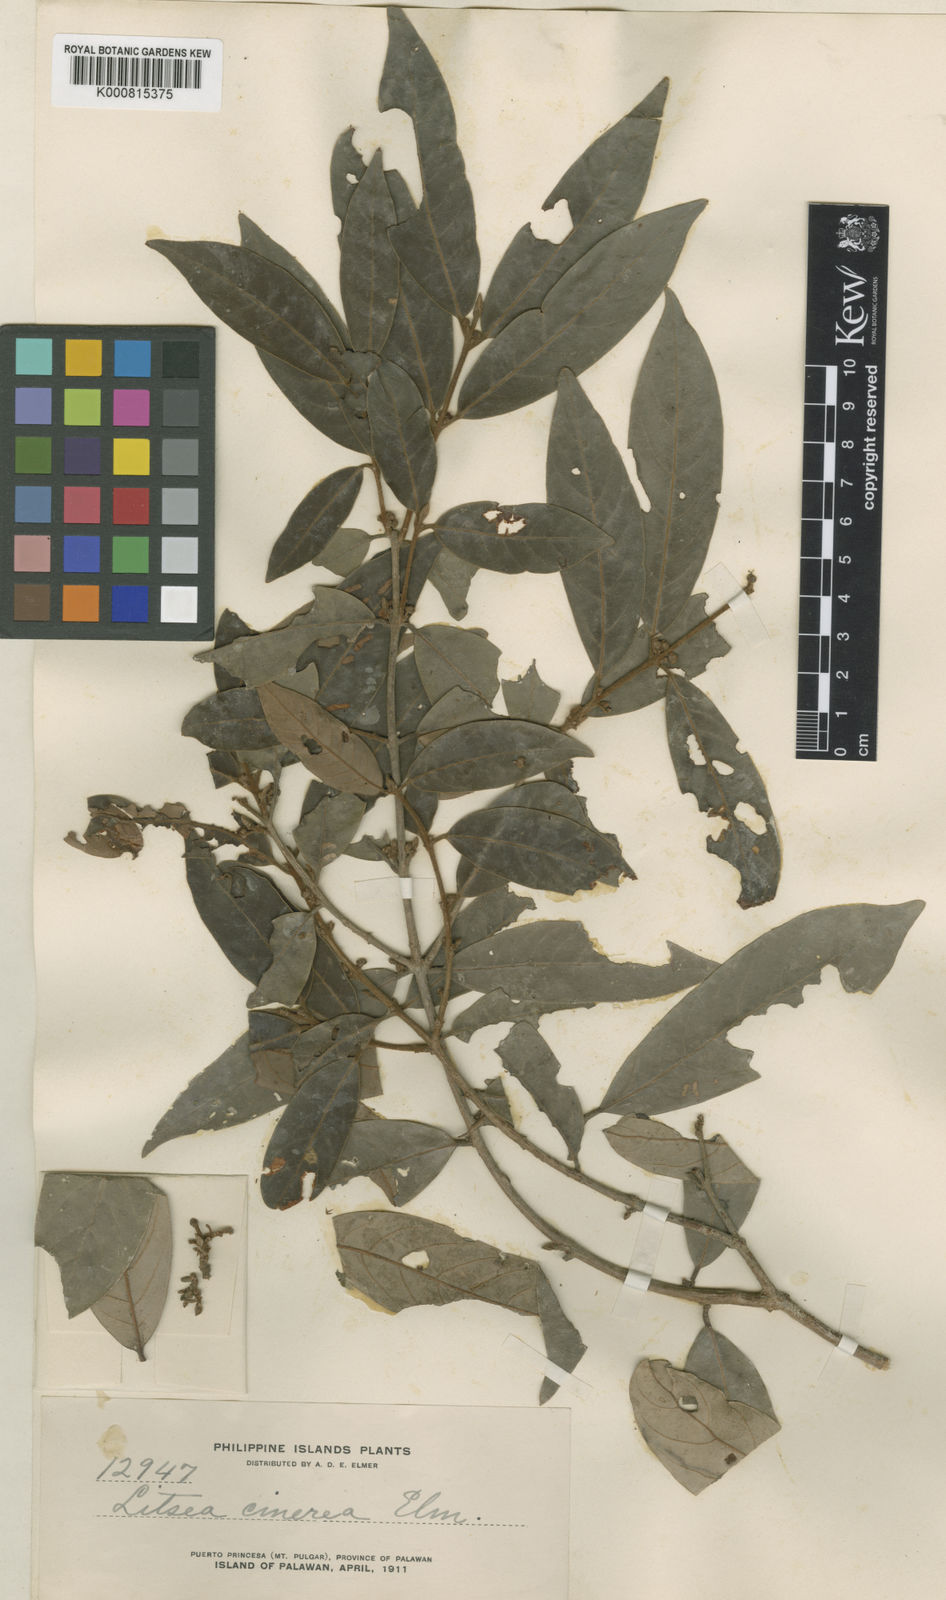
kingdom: Plantae
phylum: Tracheophyta
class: Magnoliopsida
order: Laurales
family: Lauraceae
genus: Litsea
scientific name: Litsea varians
